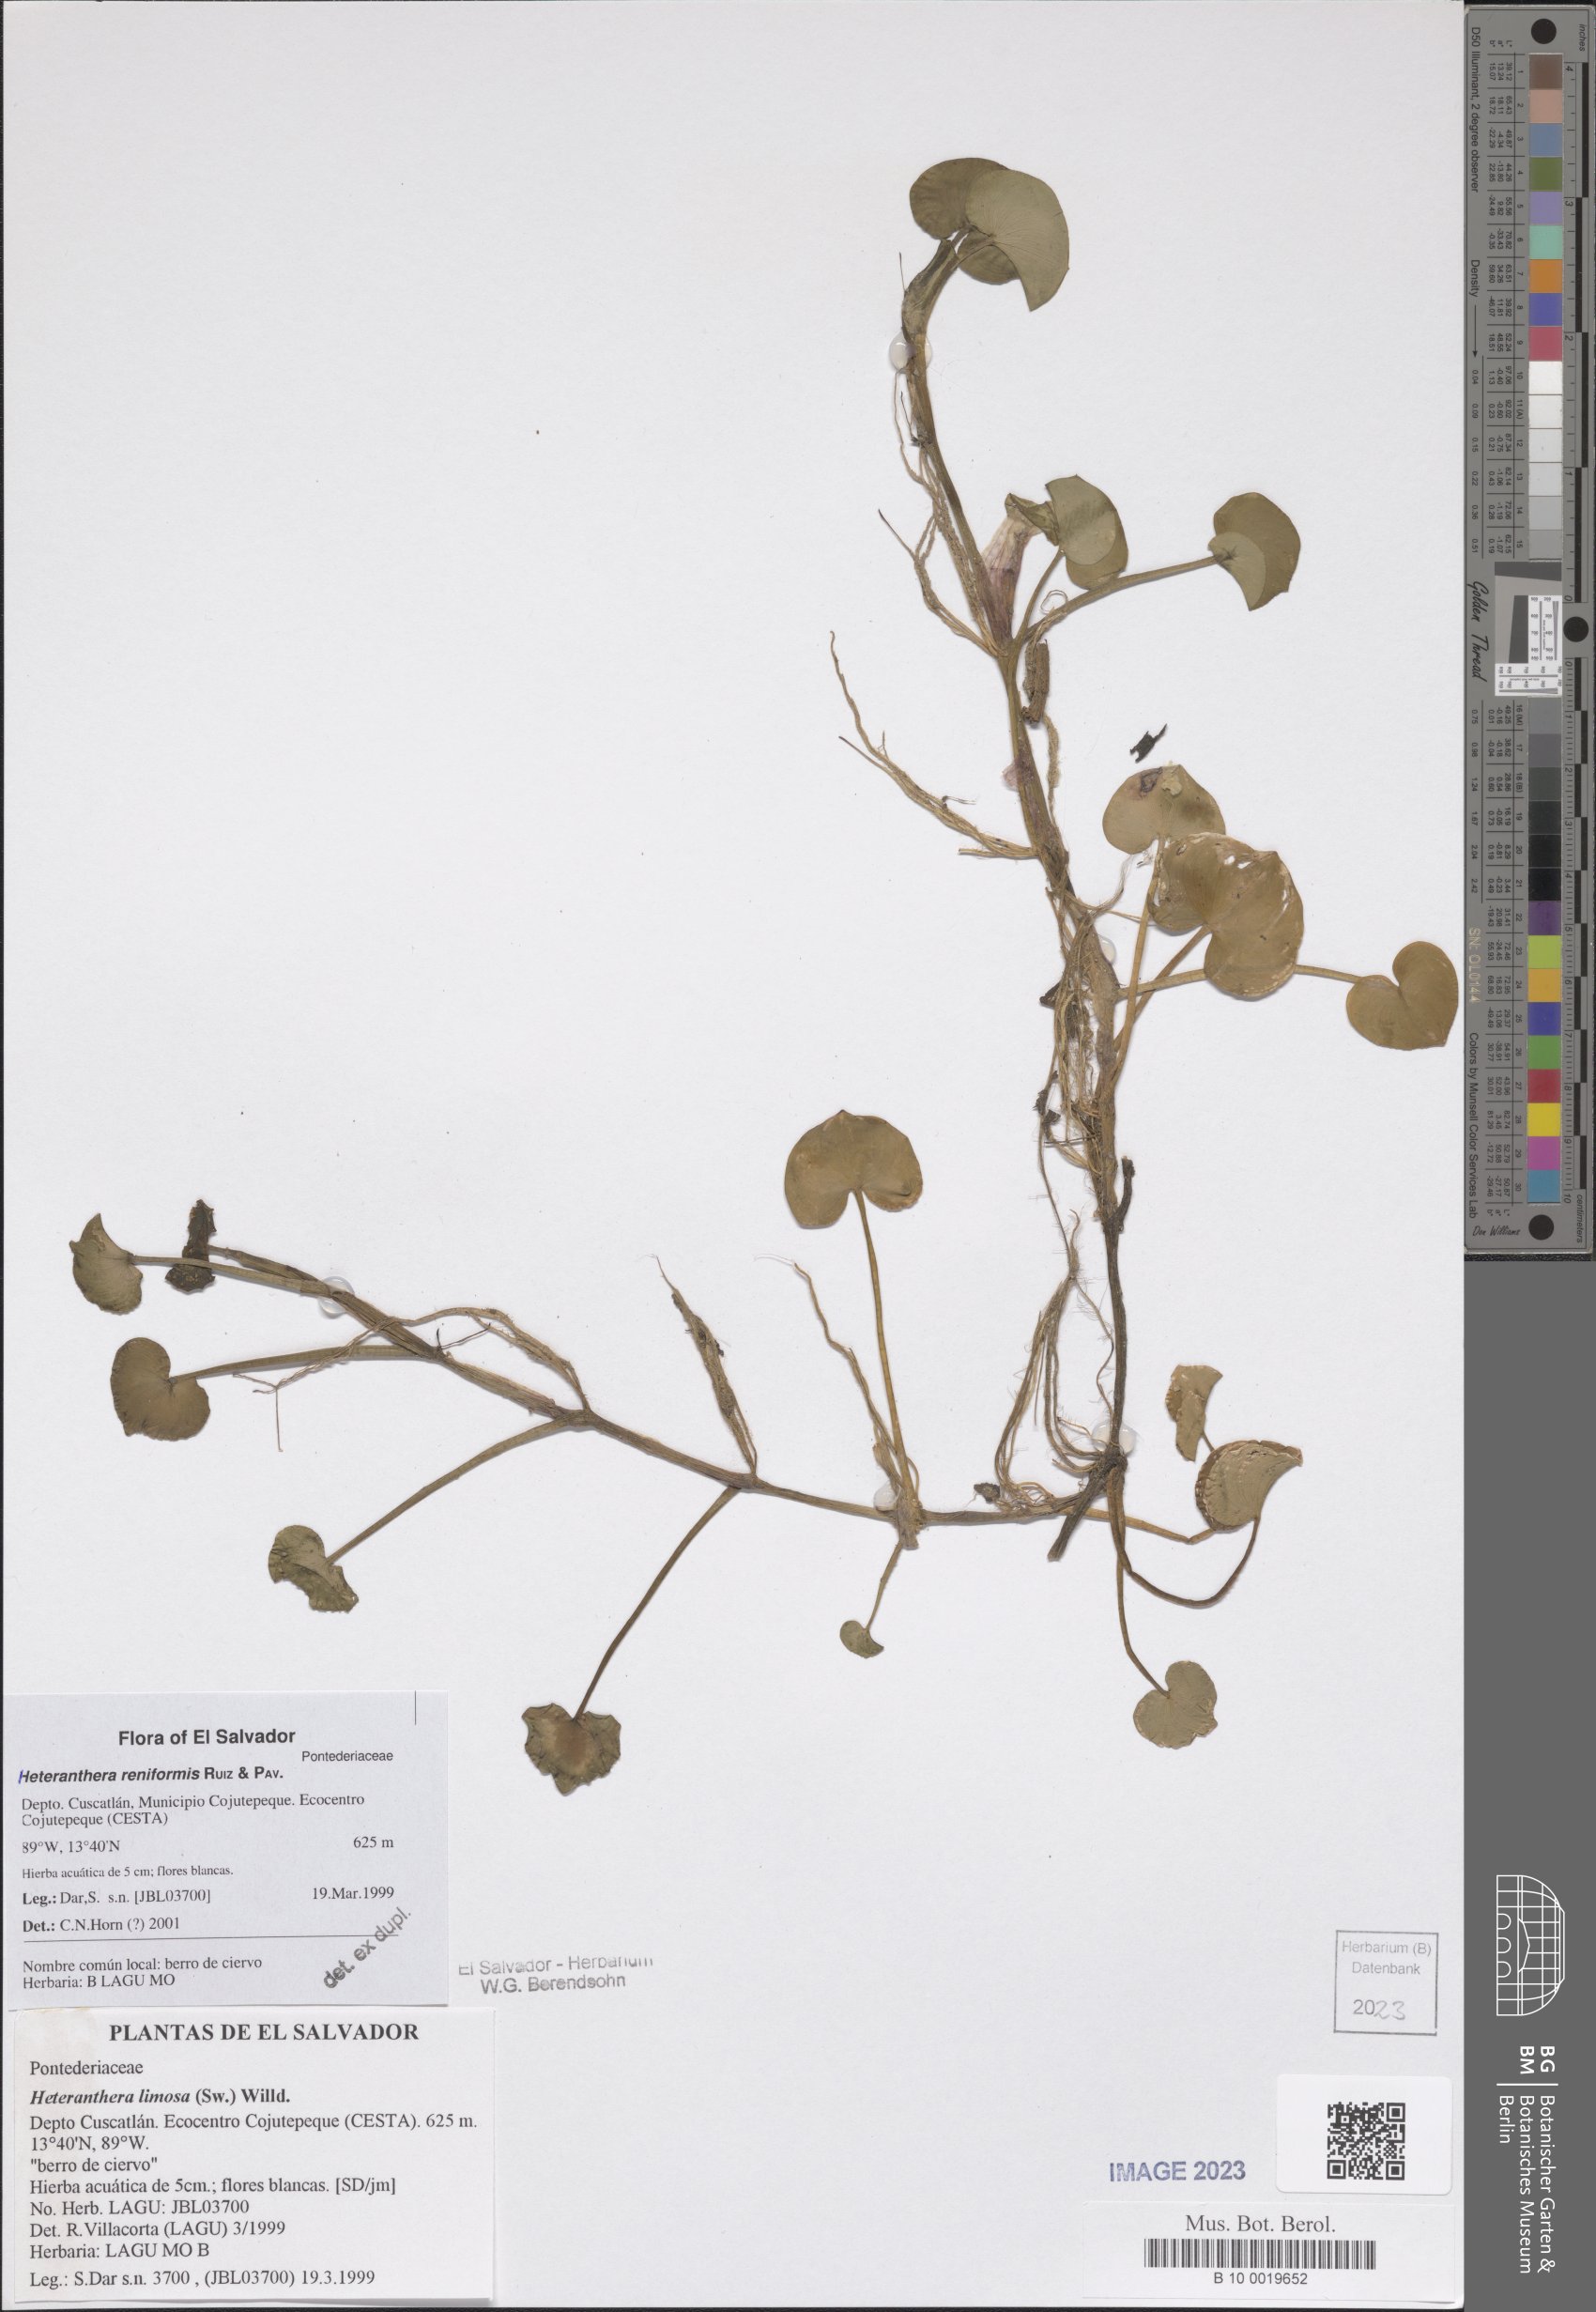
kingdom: Plantae
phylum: Tracheophyta
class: Liliopsida
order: Commelinales
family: Pontederiaceae
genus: Heteranthera
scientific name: Heteranthera reniformis
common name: Kidneyleaf mudplantain
